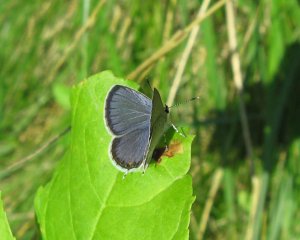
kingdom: Animalia
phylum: Arthropoda
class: Insecta
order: Lepidoptera
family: Lycaenidae
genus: Elkalyce
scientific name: Elkalyce comyntas
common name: Eastern Tailed-Blue
